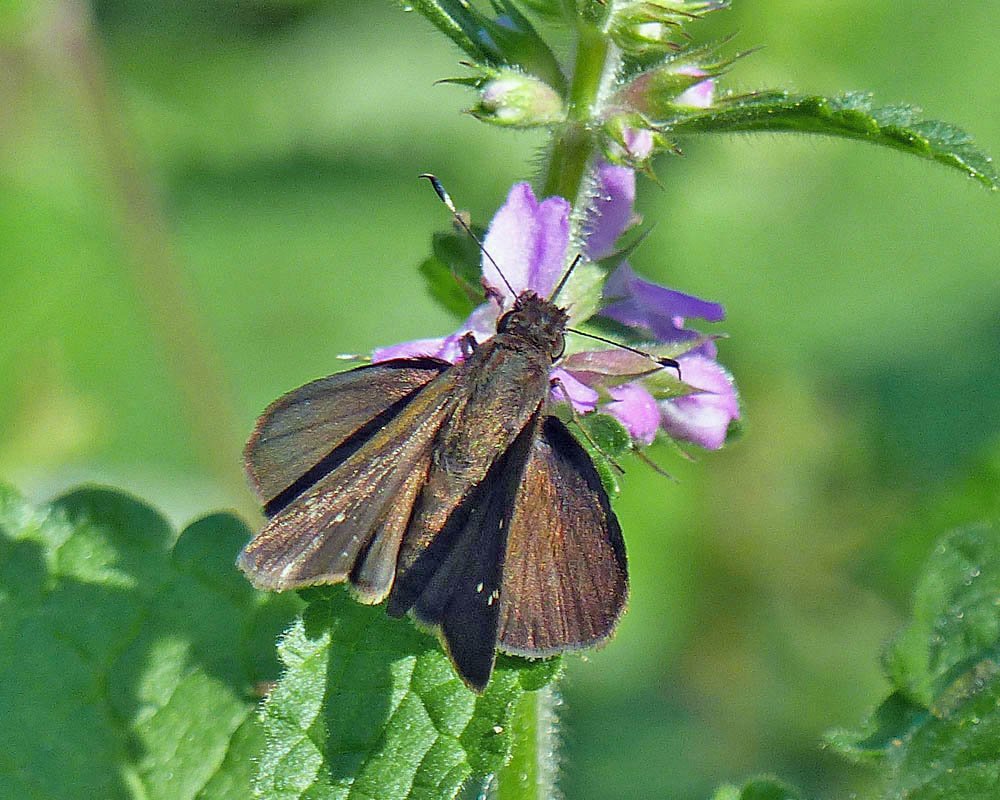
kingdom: Animalia
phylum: Arthropoda
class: Insecta
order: Lepidoptera
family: Hesperiidae
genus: Lerema
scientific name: Lerema accius
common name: Clouded Skipper
